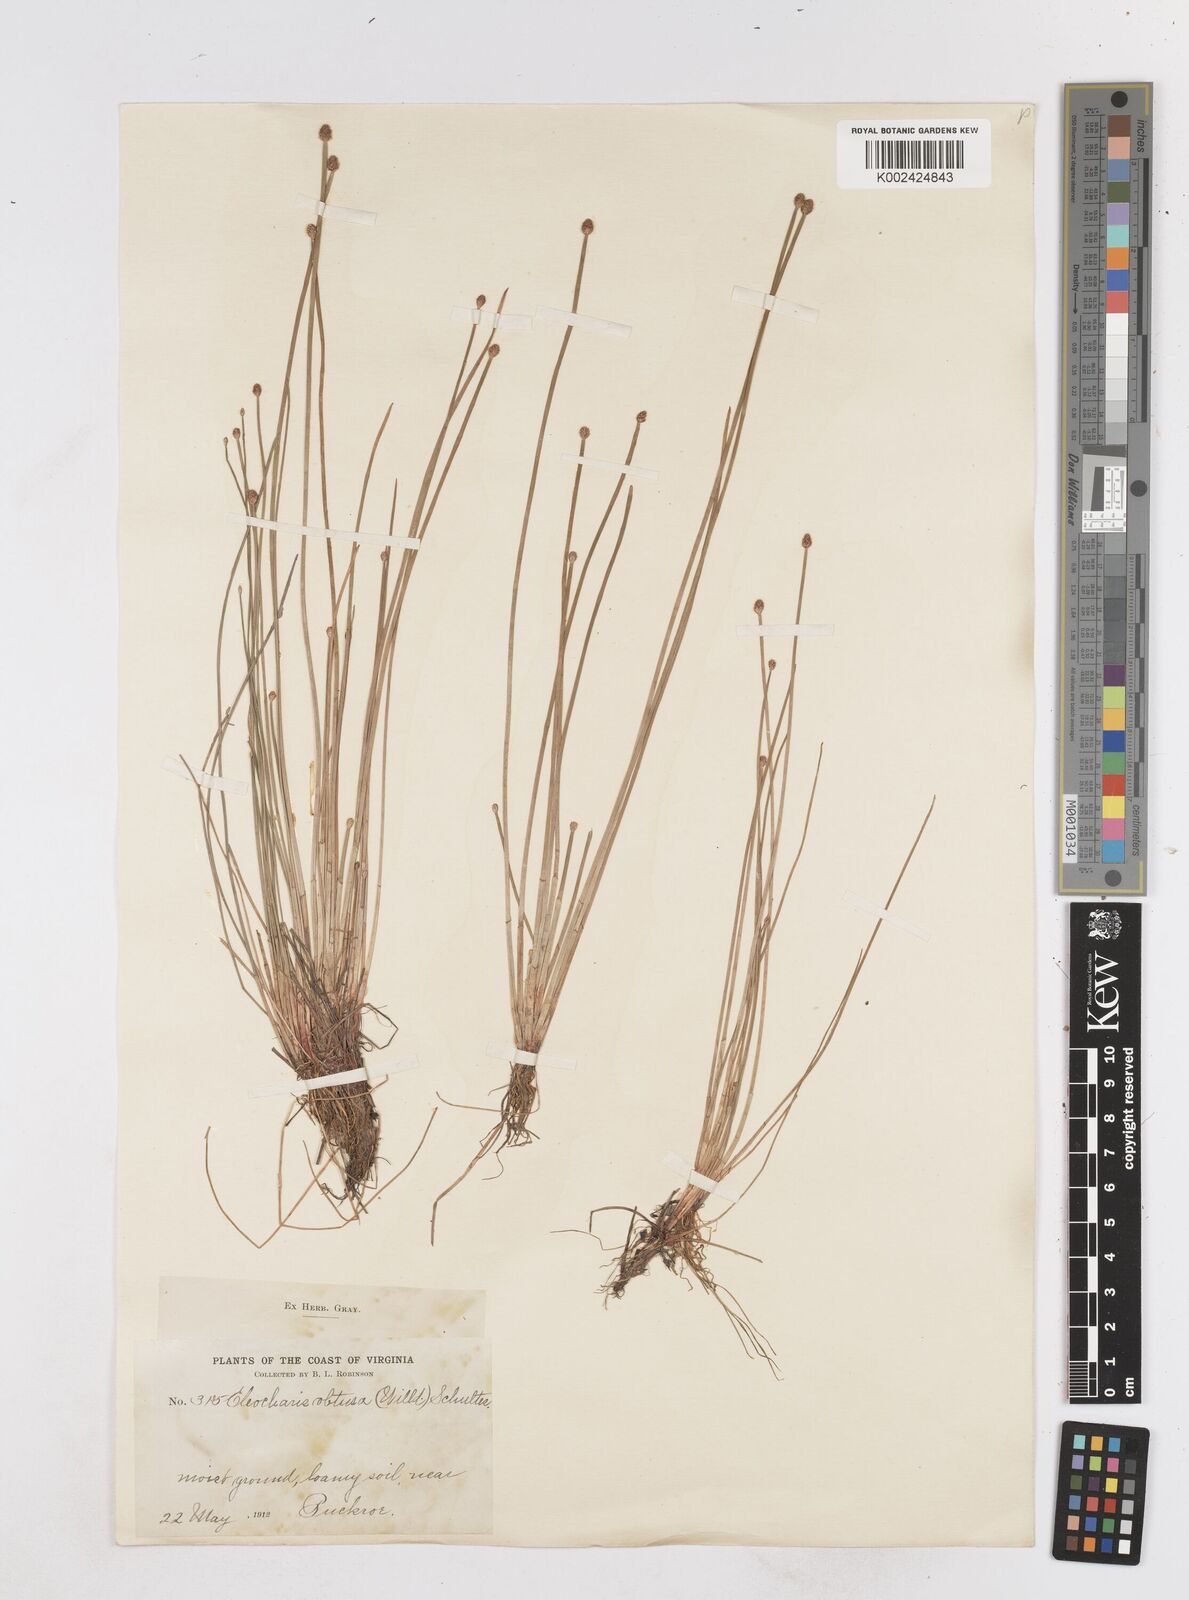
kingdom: Plantae
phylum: Tracheophyta
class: Liliopsida
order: Poales
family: Cyperaceae
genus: Eleocharis
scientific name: Eleocharis obtusa
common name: Blunt spikerush
